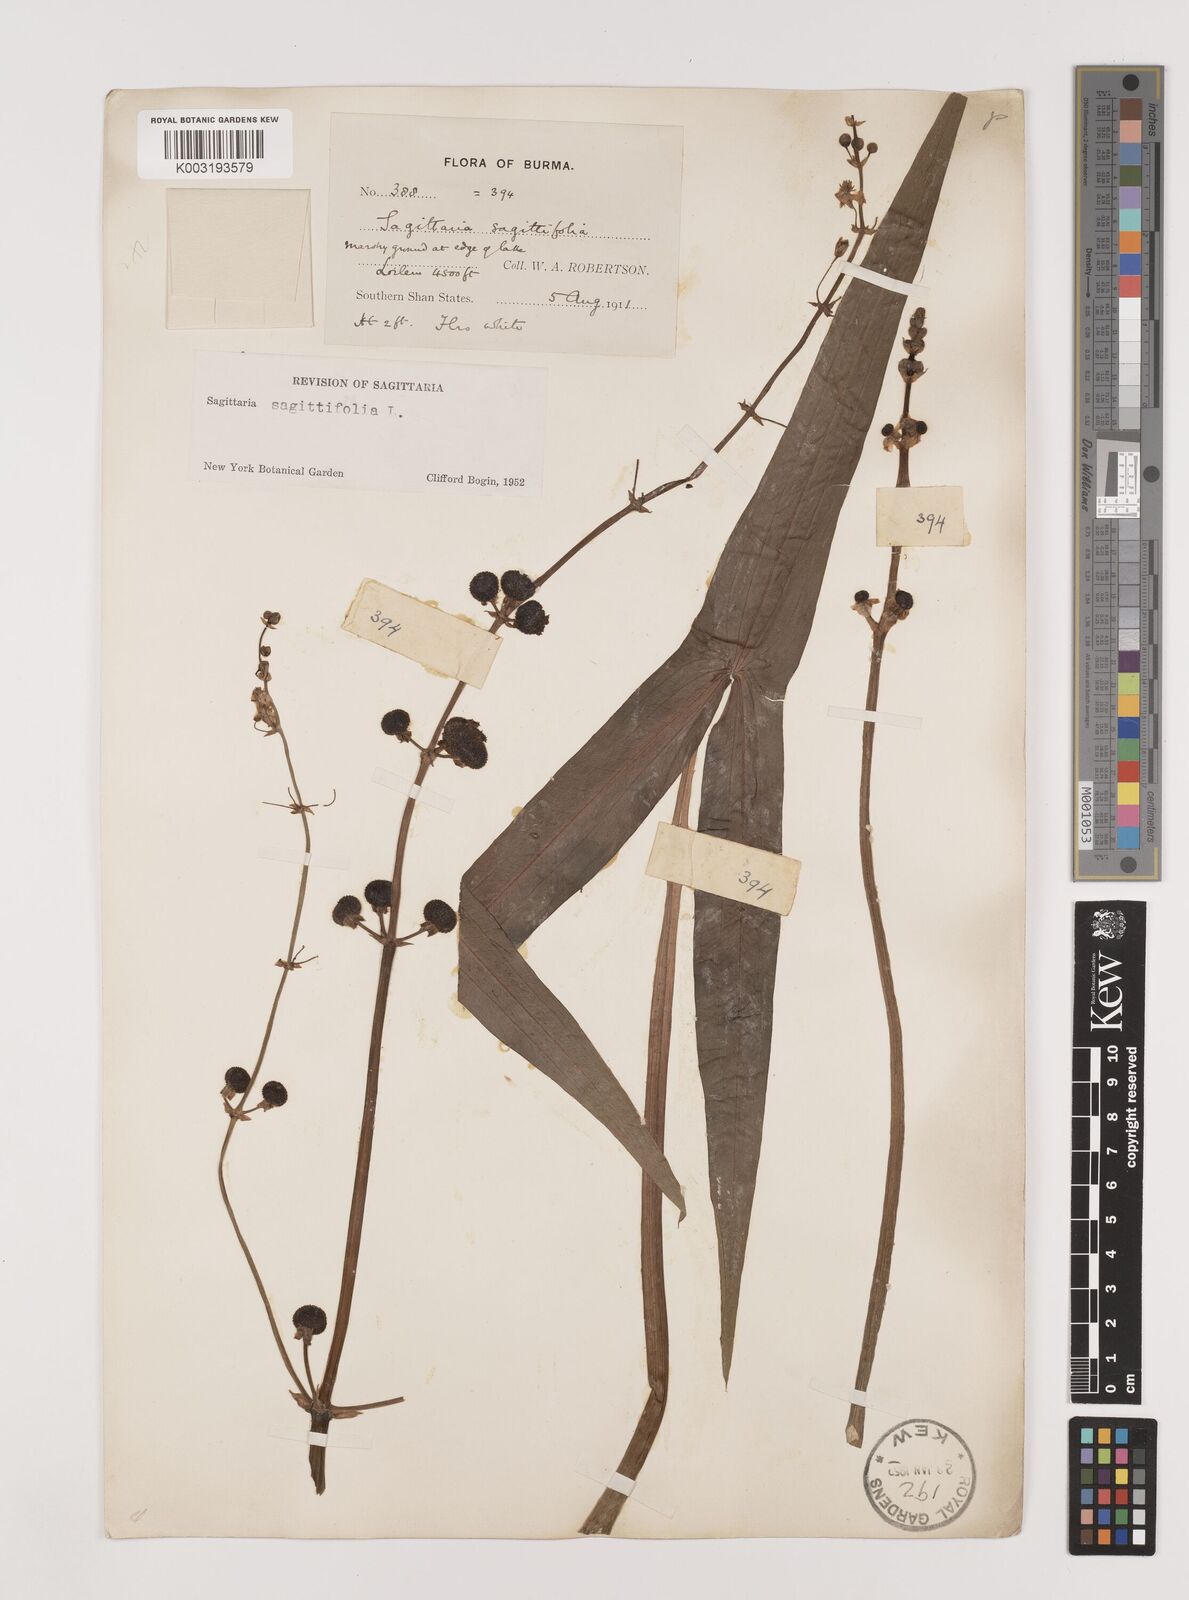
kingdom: Plantae
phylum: Tracheophyta
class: Liliopsida
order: Alismatales
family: Alismataceae
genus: Sagittaria
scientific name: Sagittaria sagittifolia
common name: Arrowhead
